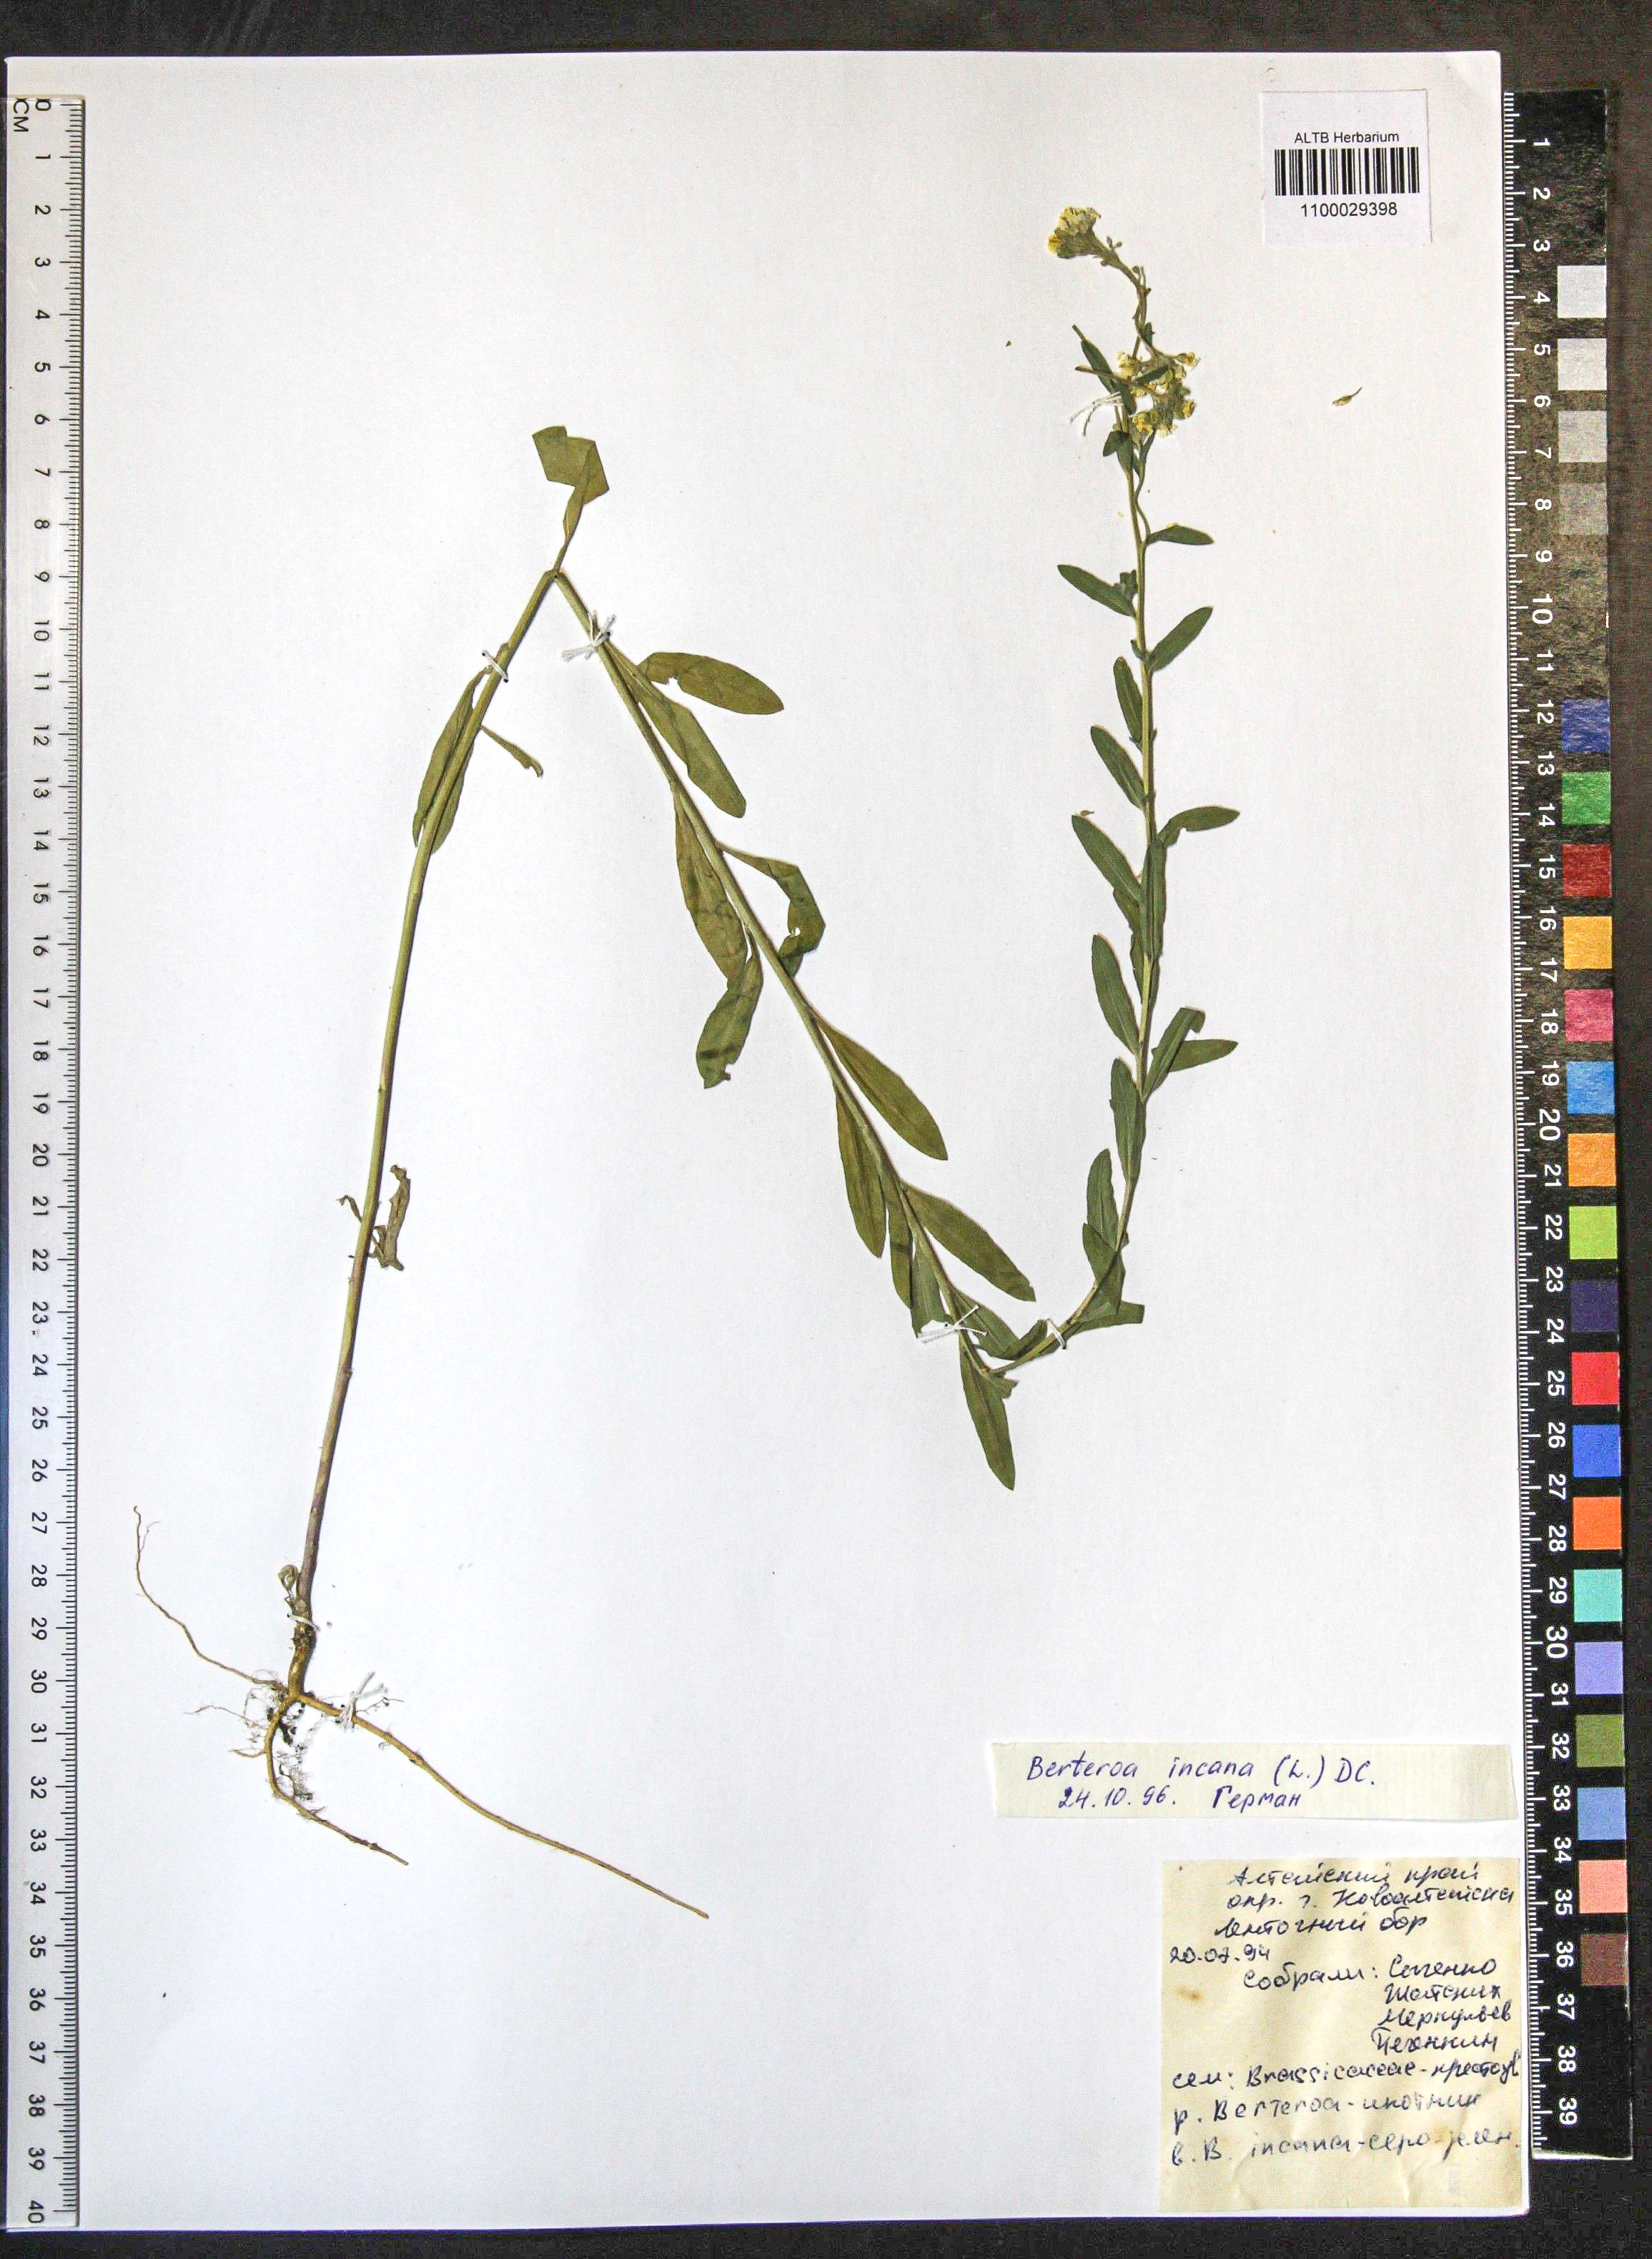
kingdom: Plantae
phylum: Tracheophyta
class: Magnoliopsida
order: Brassicales
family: Brassicaceae
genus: Berteroa
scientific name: Berteroa incana
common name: Hoary alison
